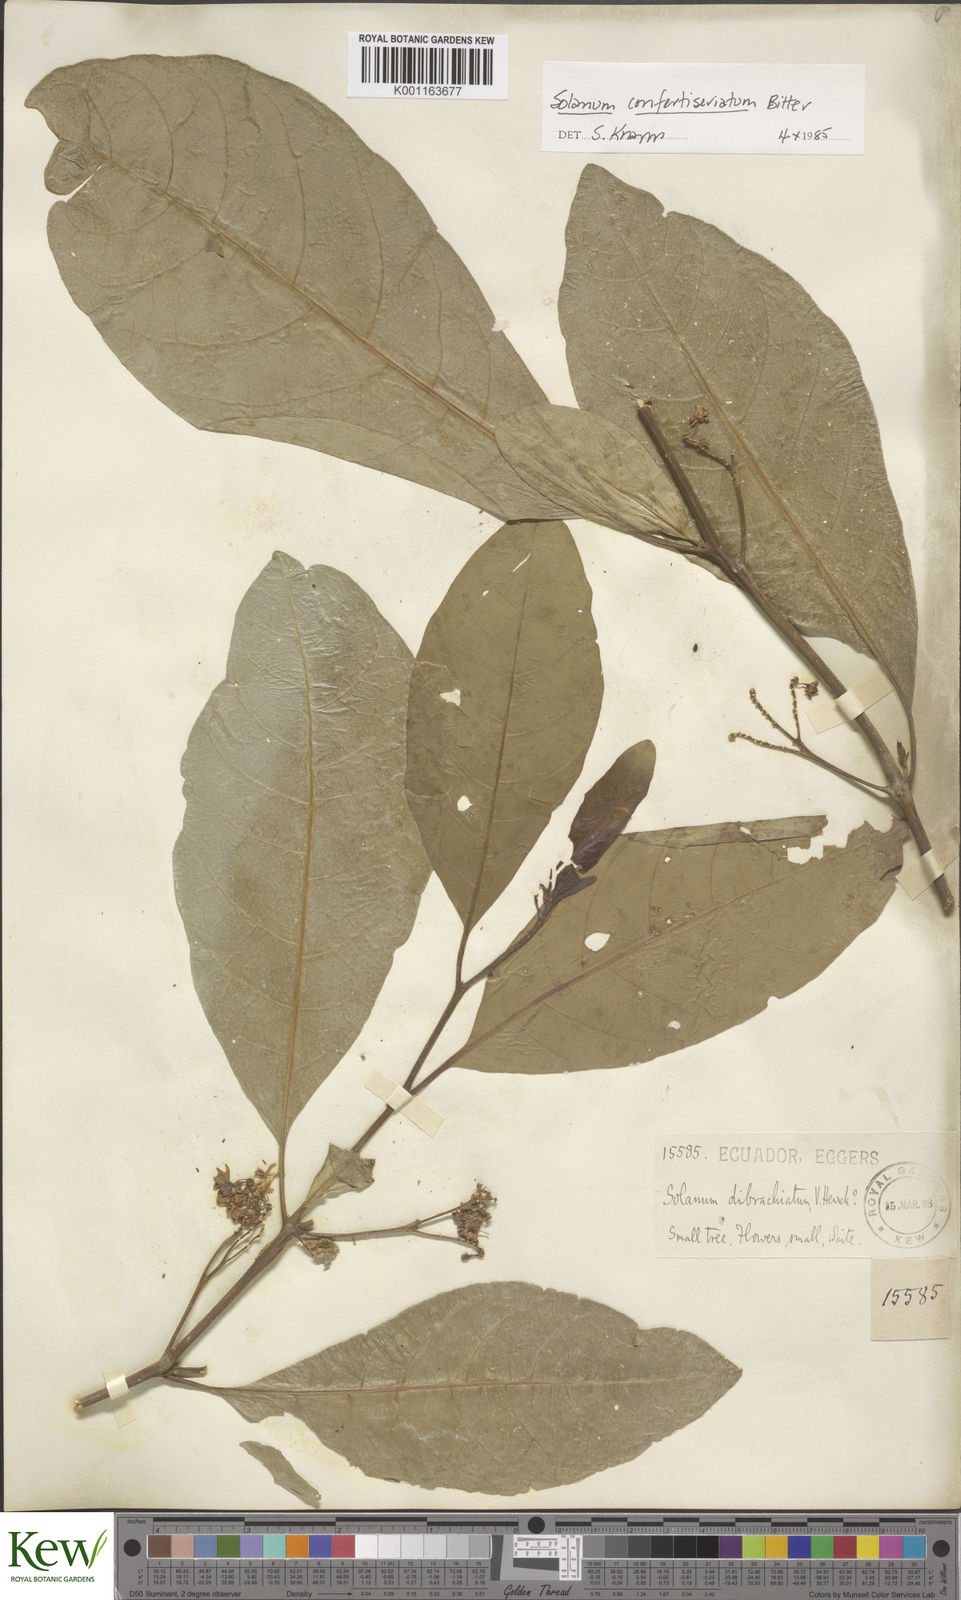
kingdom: Plantae
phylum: Tracheophyta
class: Magnoliopsida
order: Solanales
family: Solanaceae
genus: Solanum
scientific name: Solanum confertiseriatum
